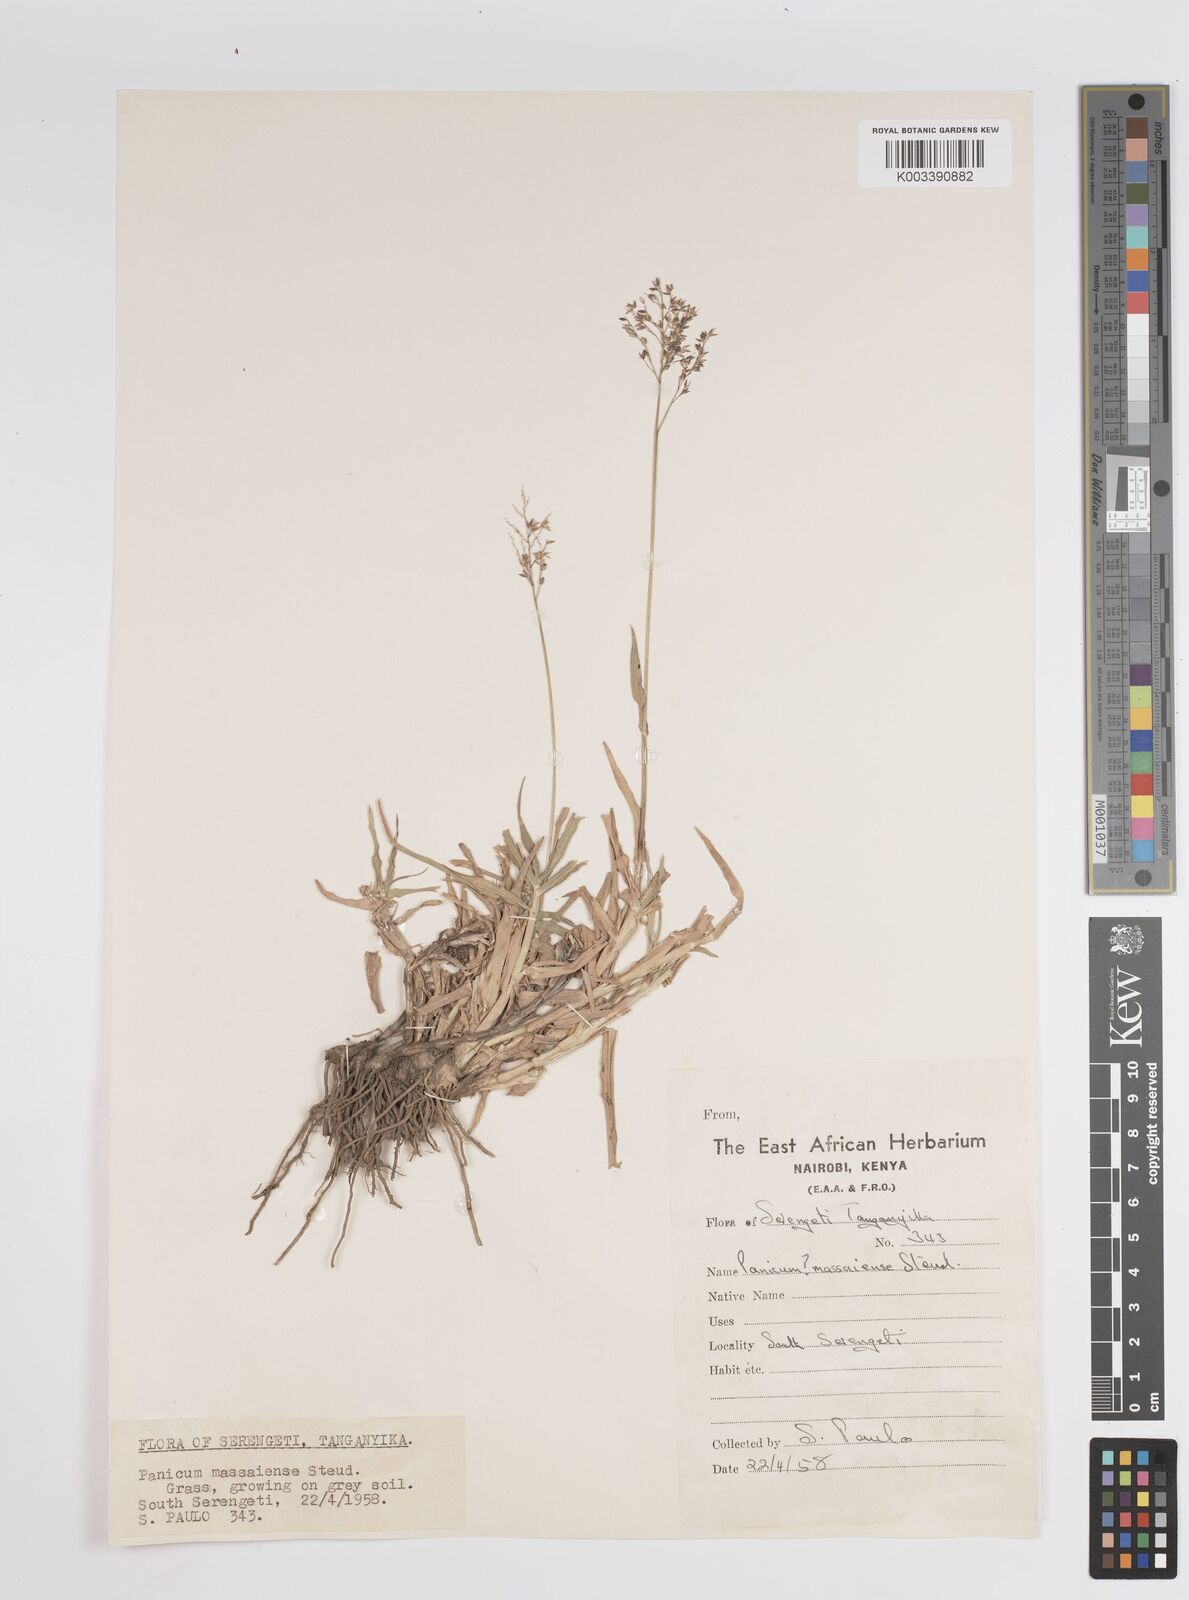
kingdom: Plantae
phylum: Tracheophyta
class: Liliopsida
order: Poales
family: Poaceae
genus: Panicum
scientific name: Panicum coloratum
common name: Kleingrass
